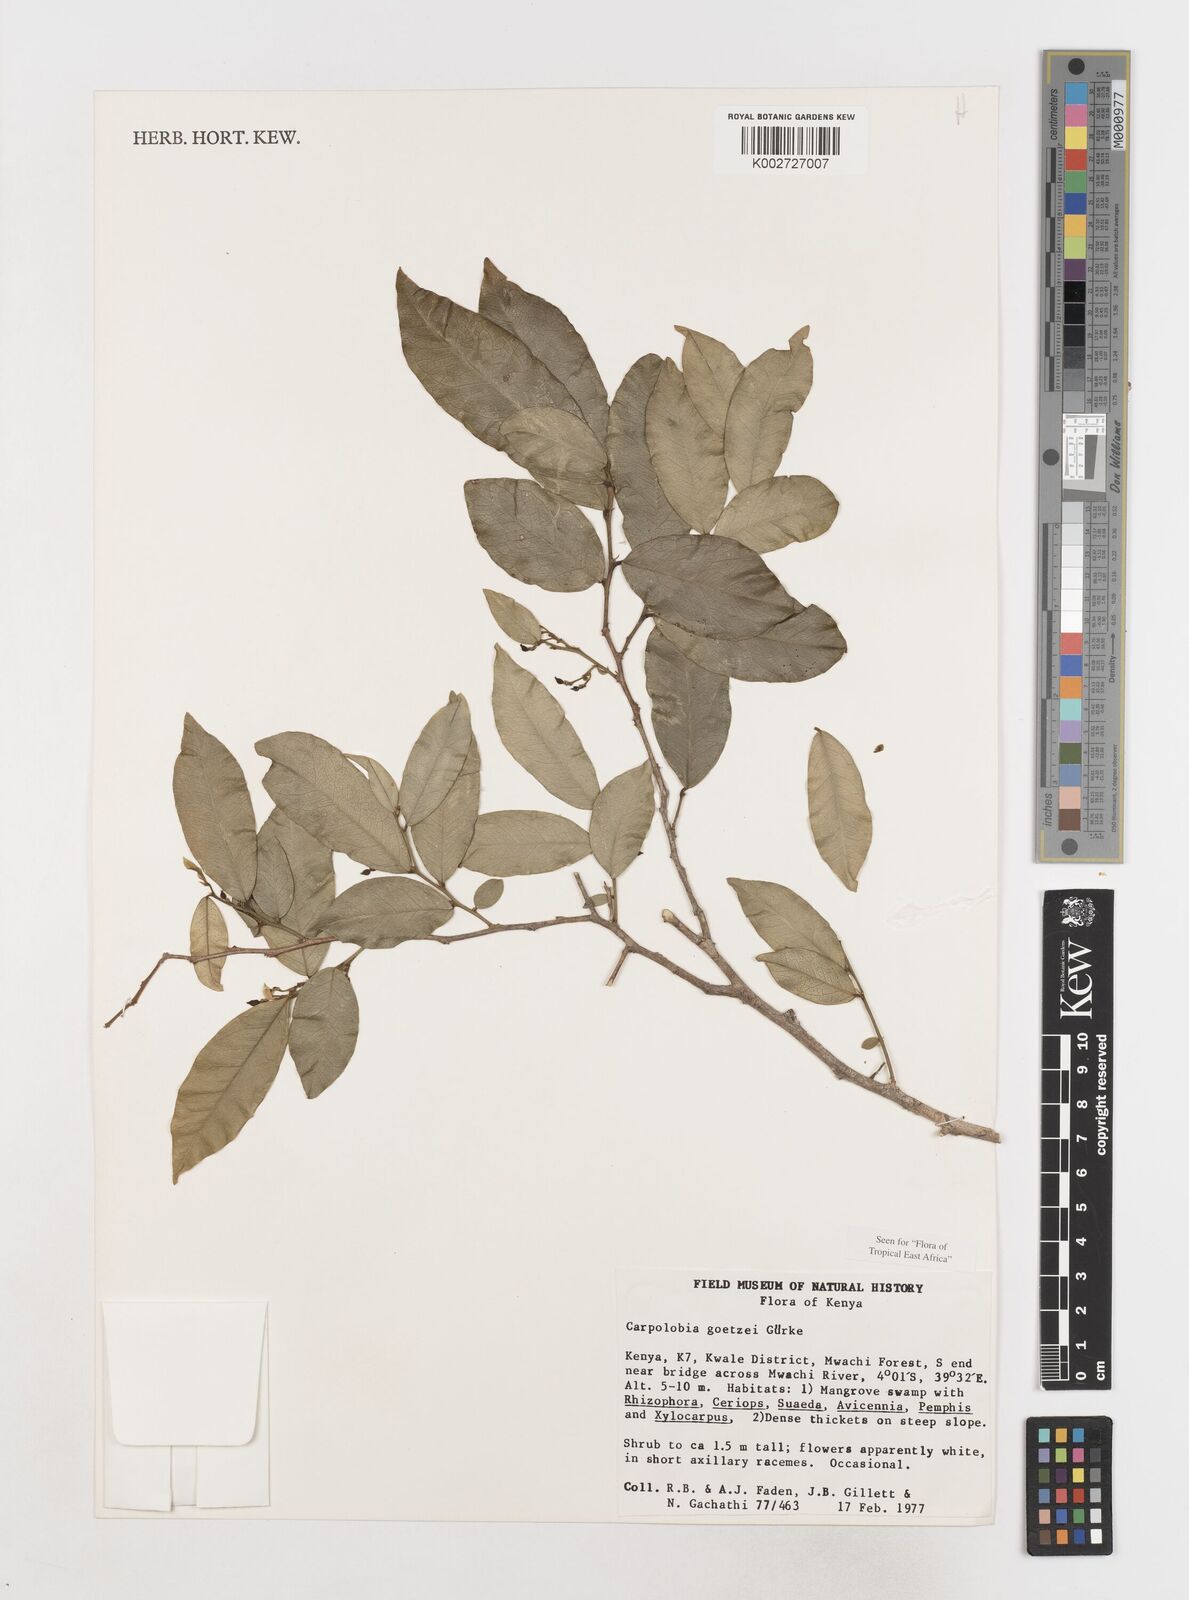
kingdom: Plantae
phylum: Tracheophyta
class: Magnoliopsida
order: Fabales
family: Polygalaceae
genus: Carpolobia
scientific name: Carpolobia goetzei
